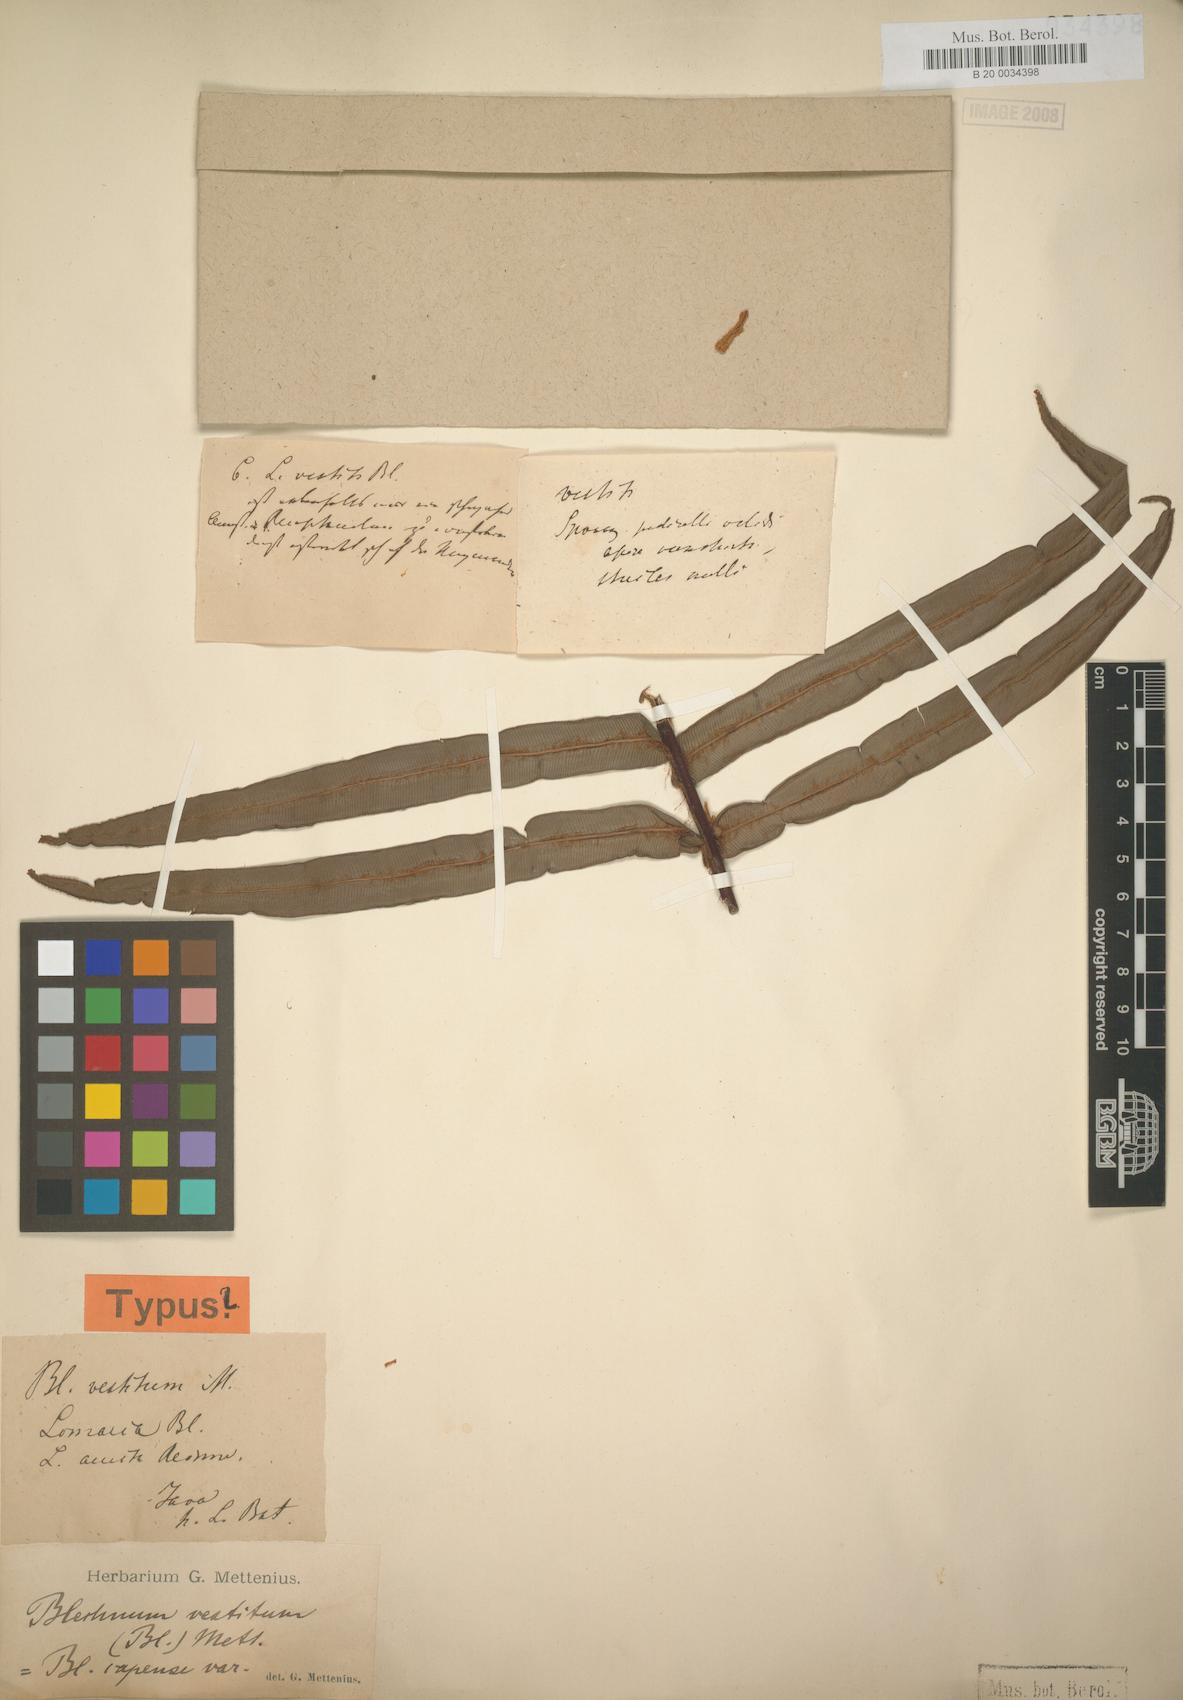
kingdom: Plantae
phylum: Tracheophyta
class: Polypodiopsida
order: Polypodiales
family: Blechnaceae
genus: Parablechnum
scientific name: Parablechnum vestitum
